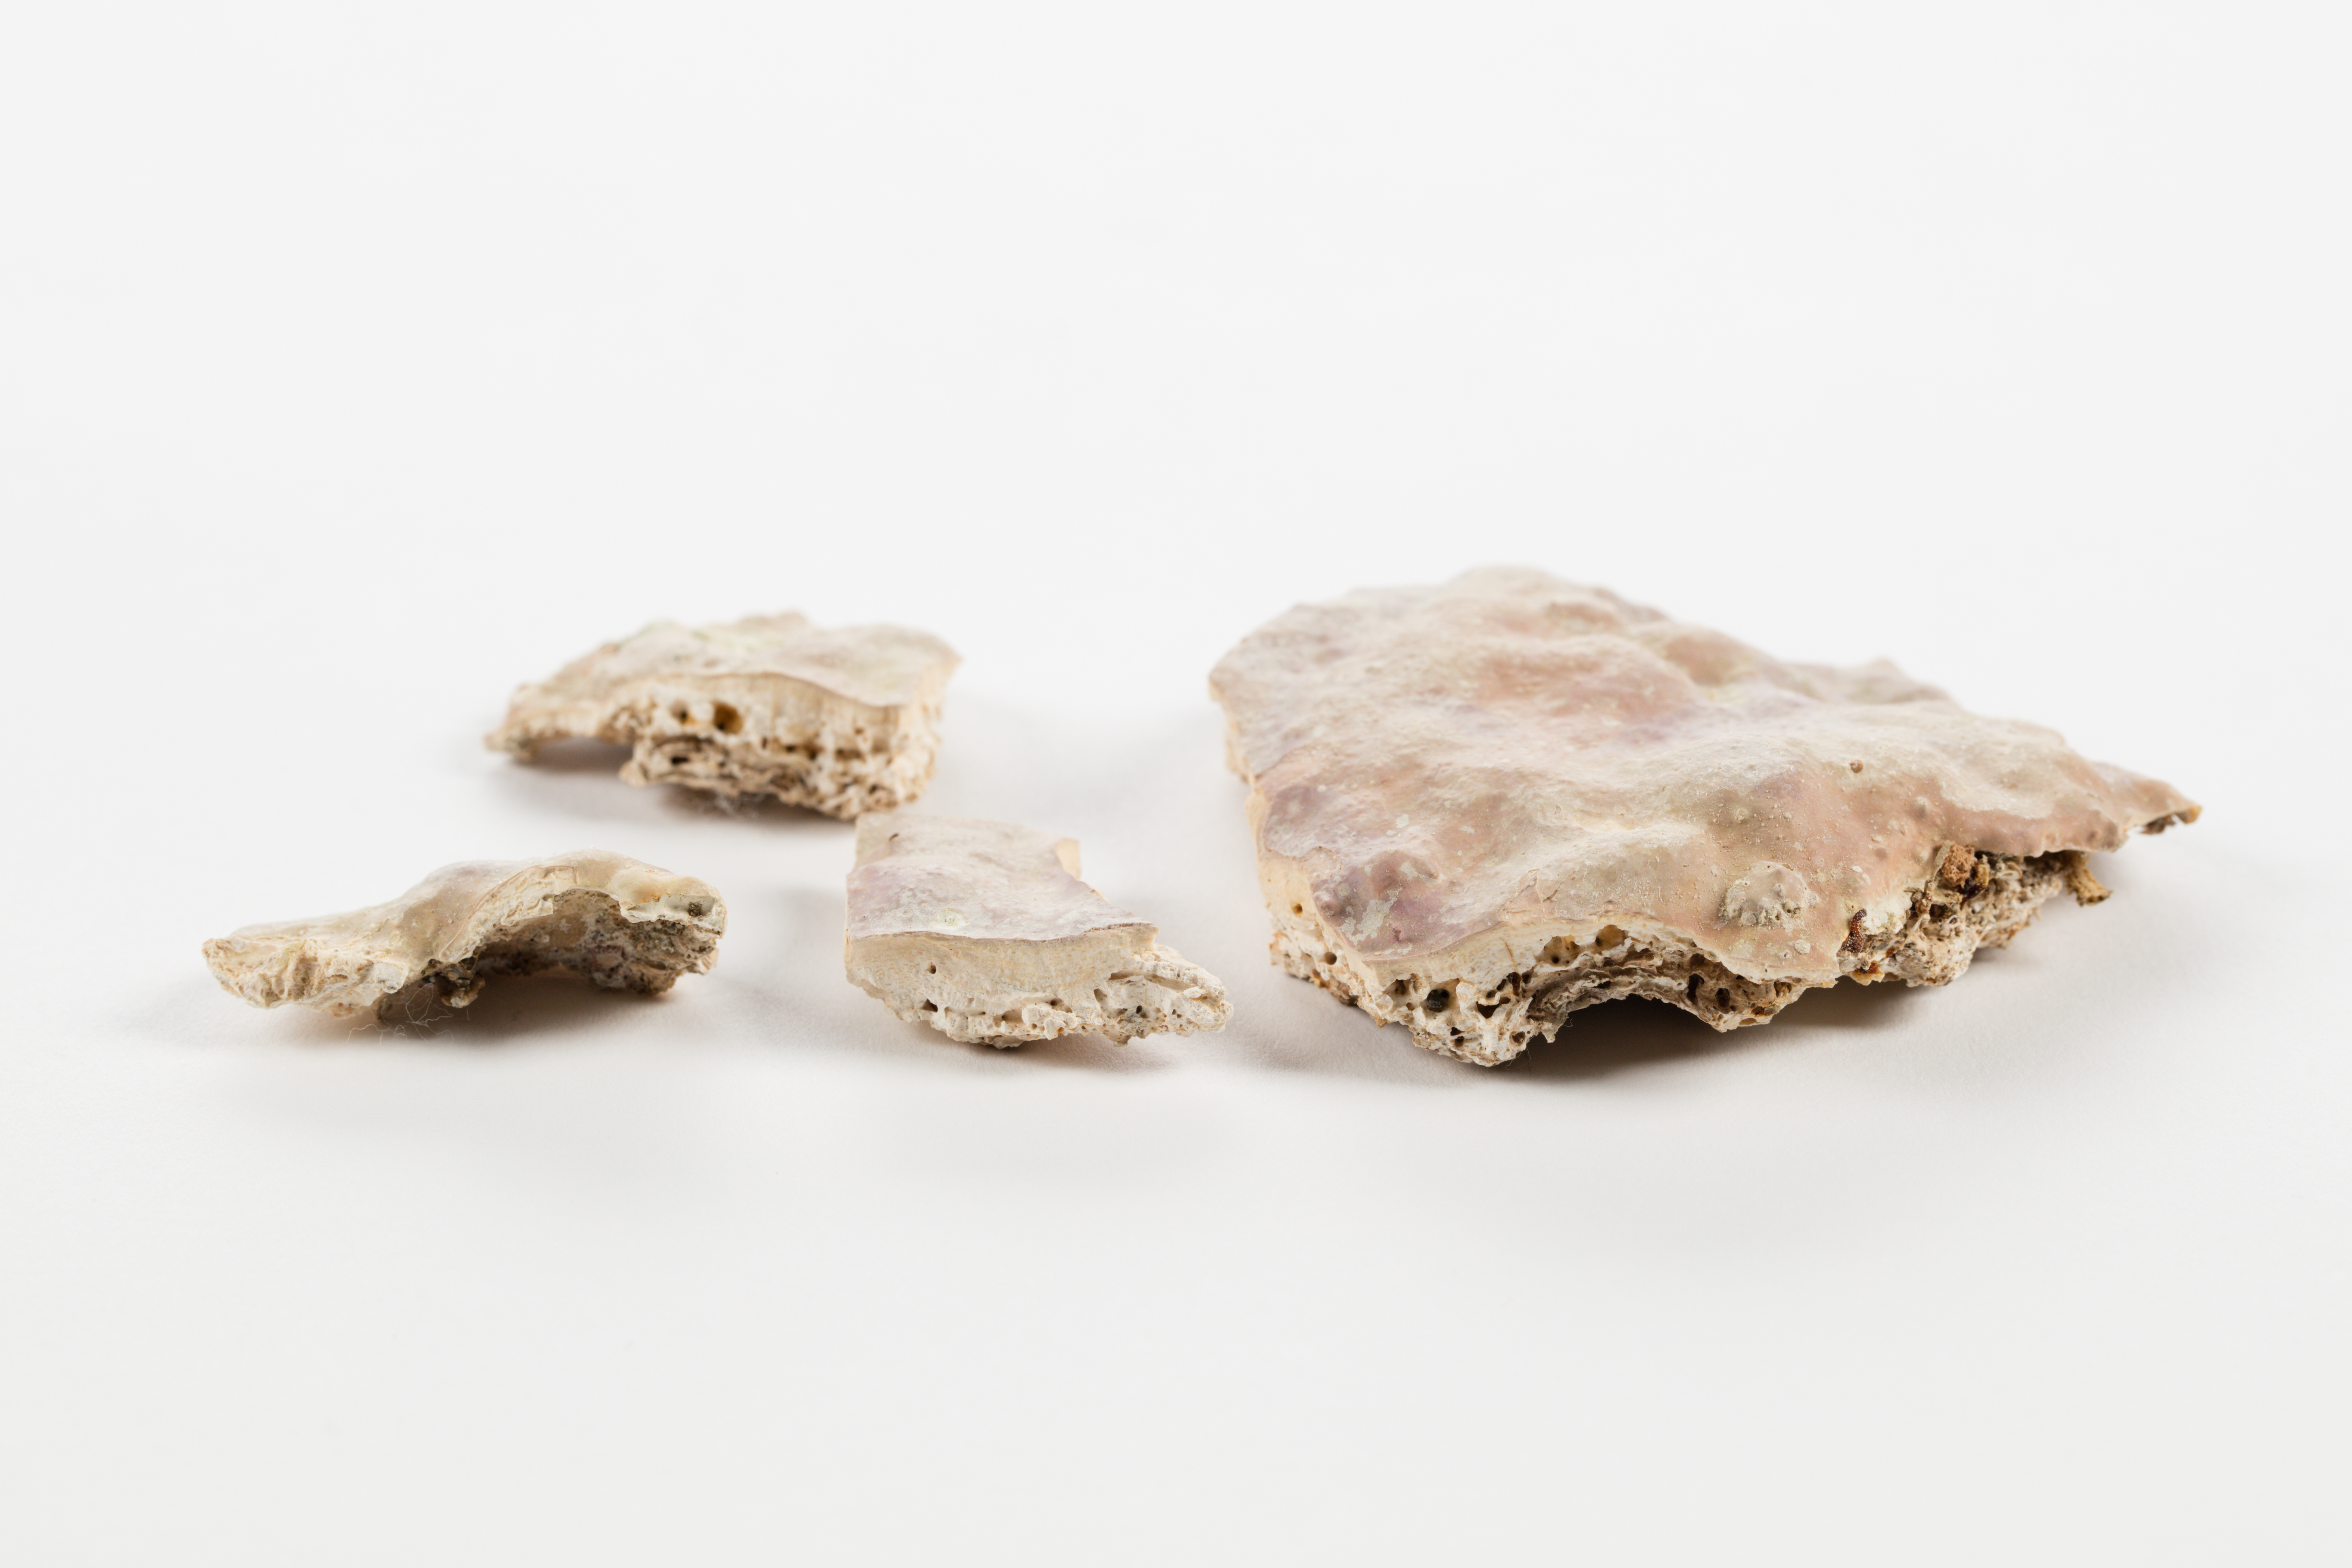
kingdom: Plantae
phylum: Rhodophyta
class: Florideophyceae
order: Corallinales
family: Lithophyllaceae
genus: Titanoderma
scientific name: Titanoderma conspectum
